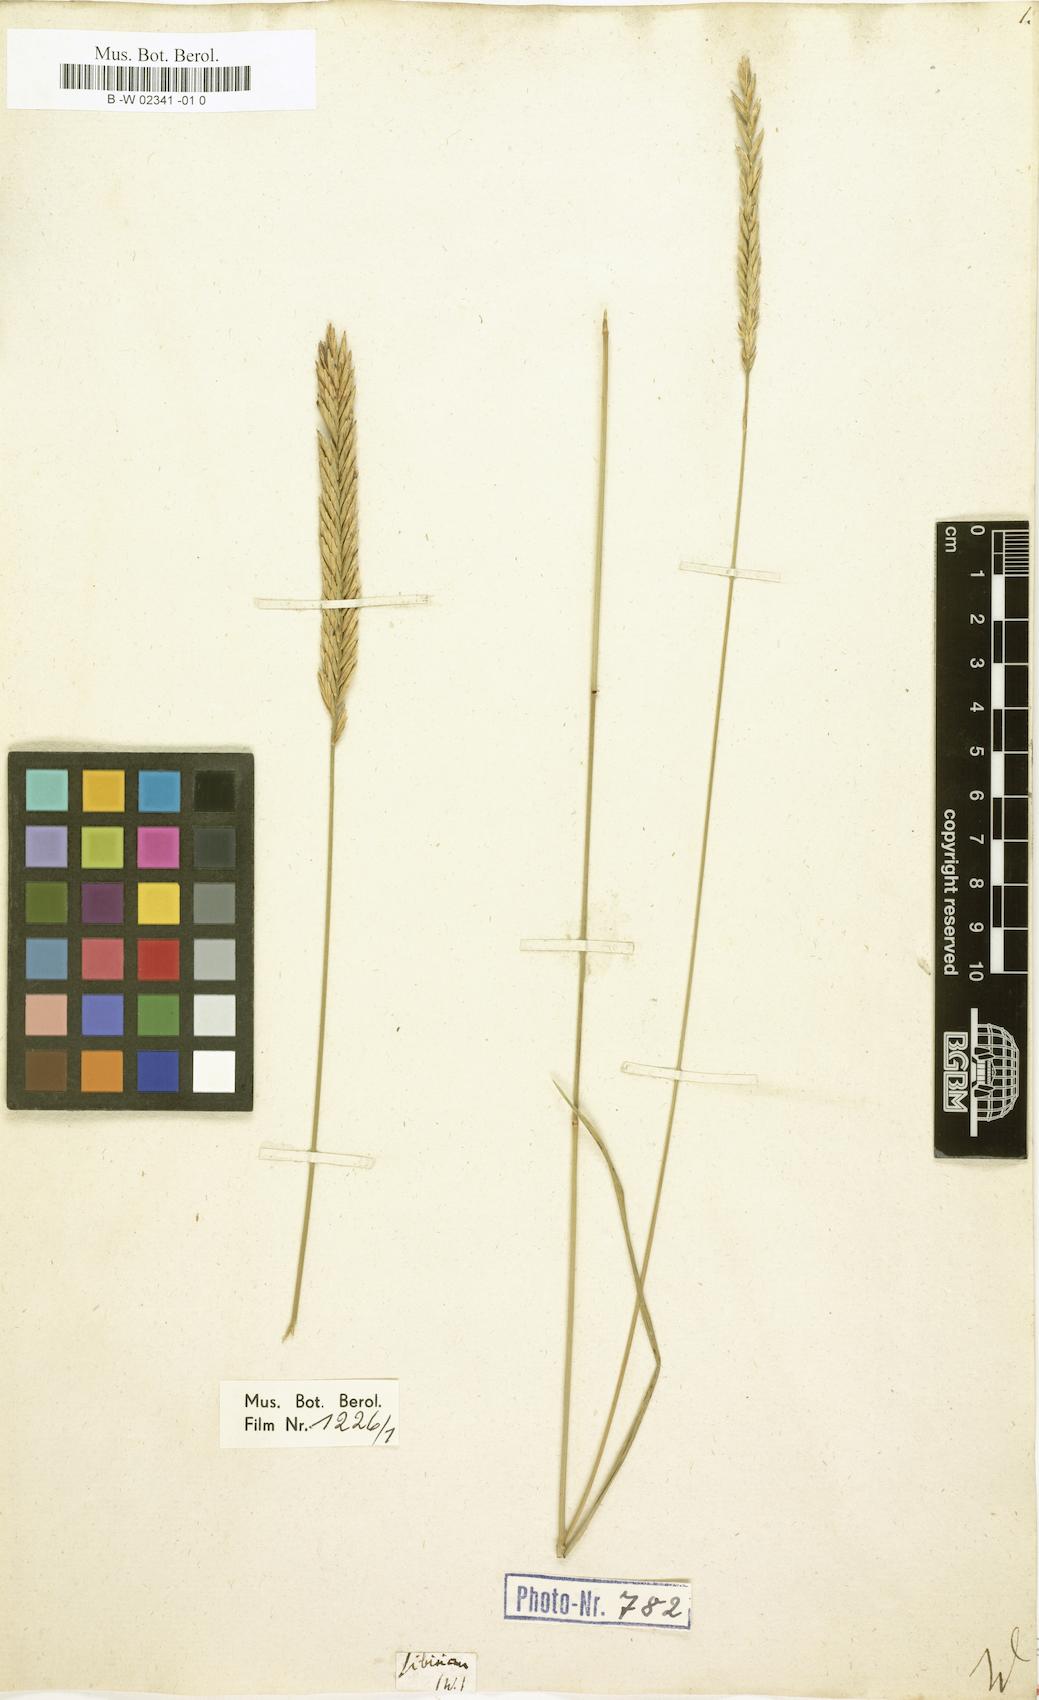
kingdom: Plantae
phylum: Tracheophyta
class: Liliopsida
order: Poales
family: Poaceae
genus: Agropyron
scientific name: Agropyron fragile
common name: Siberian wheatgrass
